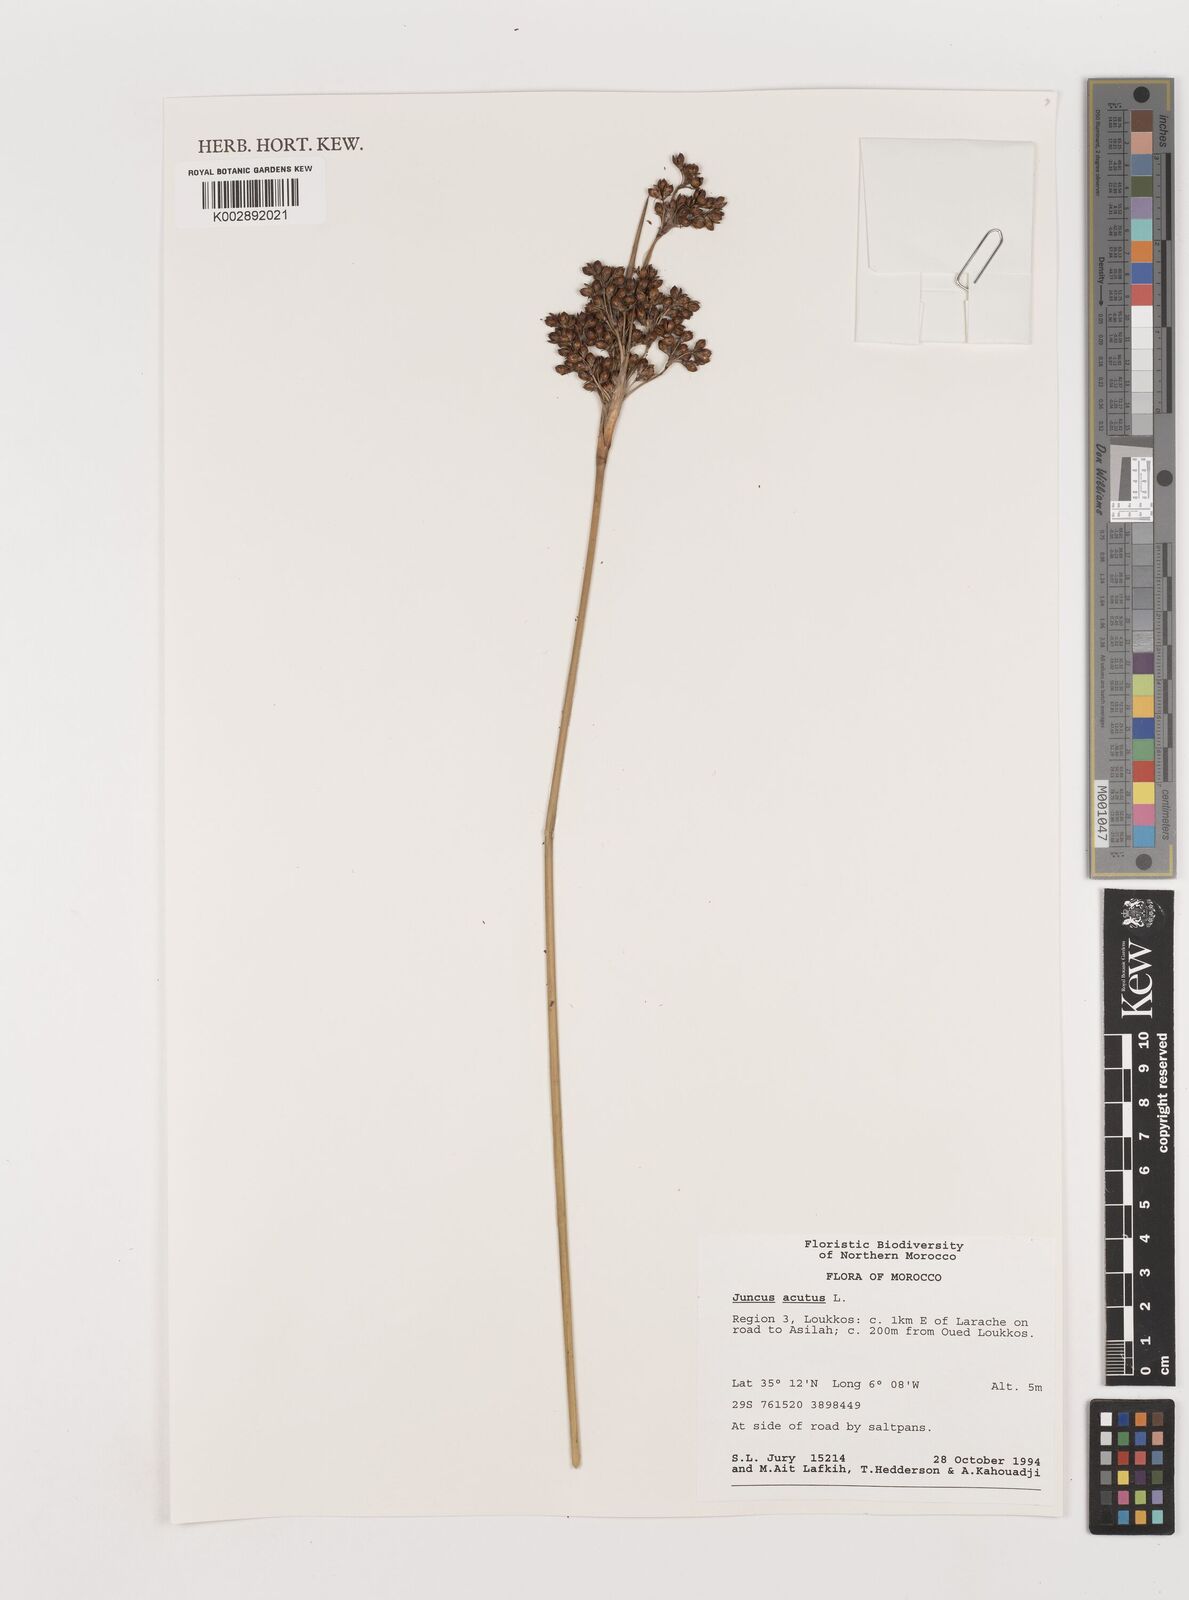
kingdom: Plantae
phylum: Tracheophyta
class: Liliopsida
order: Poales
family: Juncaceae
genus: Juncus
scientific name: Juncus acutus
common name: Sharp rush
